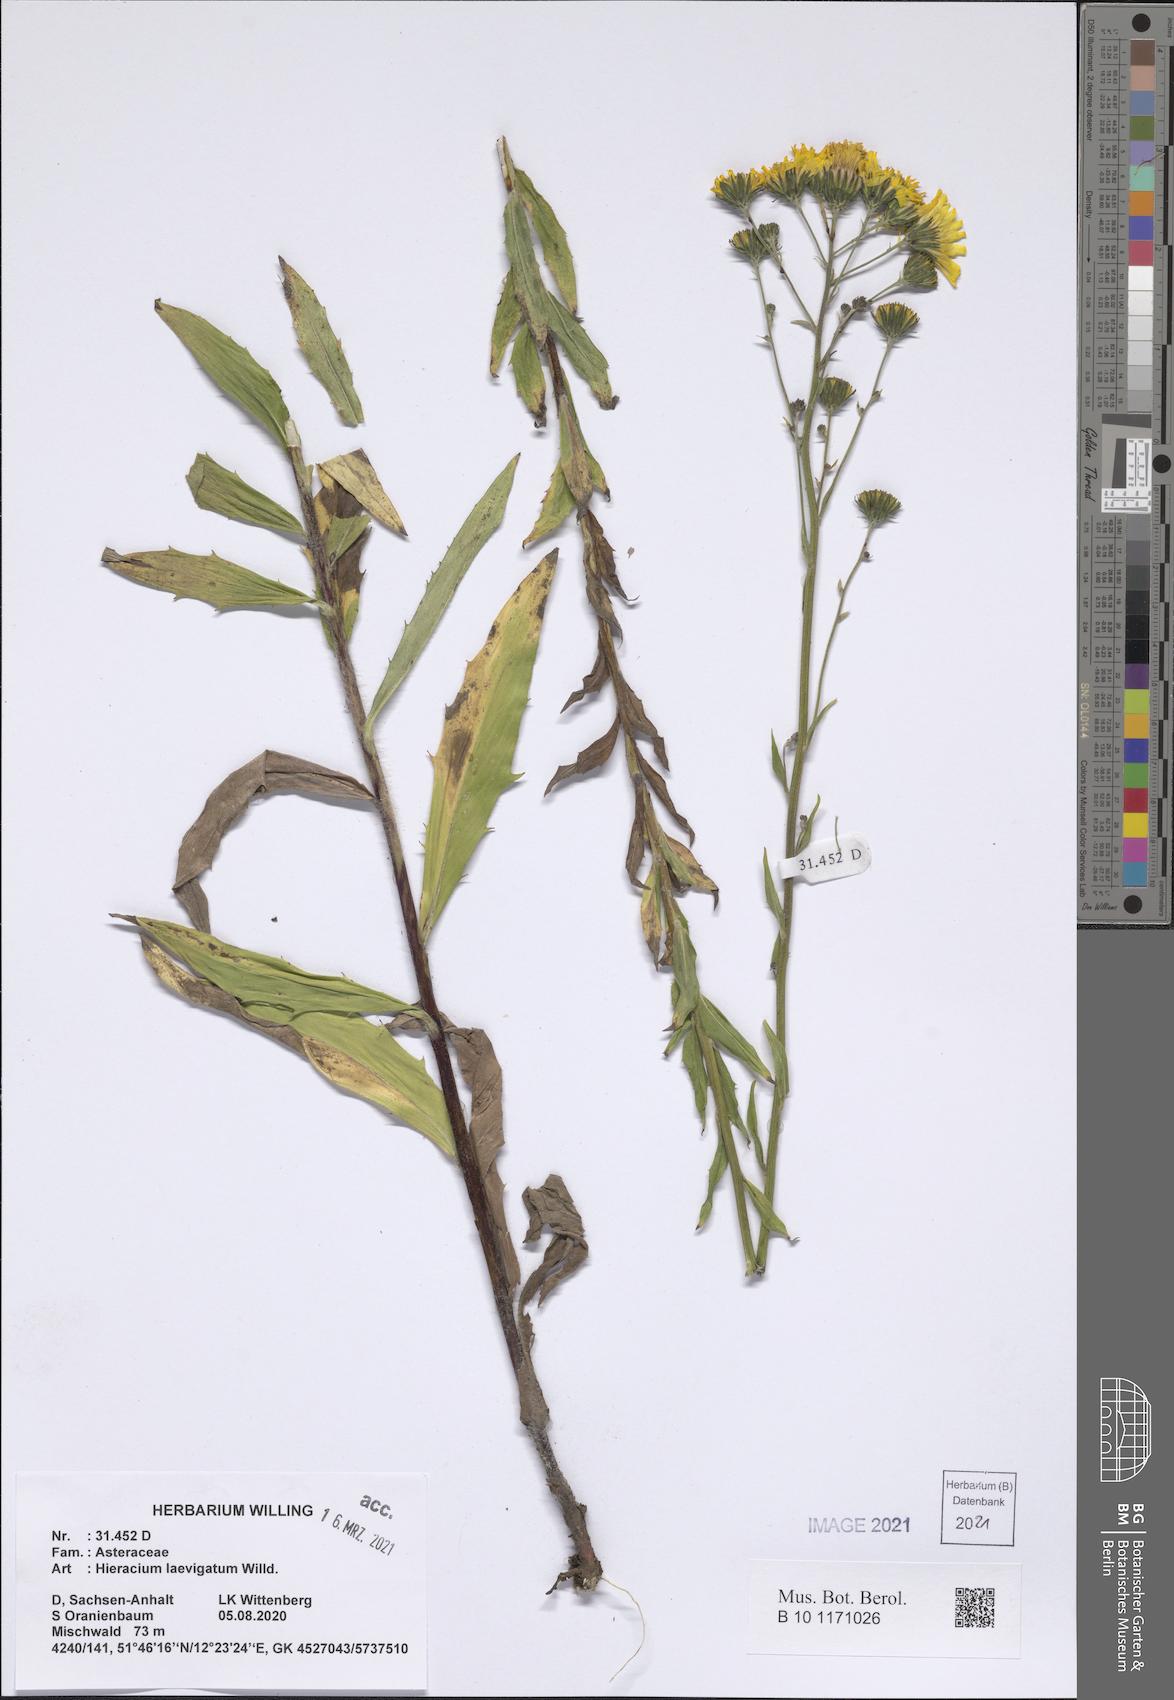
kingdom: Plantae
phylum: Tracheophyta
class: Magnoliopsida
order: Asterales
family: Asteraceae
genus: Hieracium
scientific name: Hieracium laevigatum
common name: Smooth hawkweed
